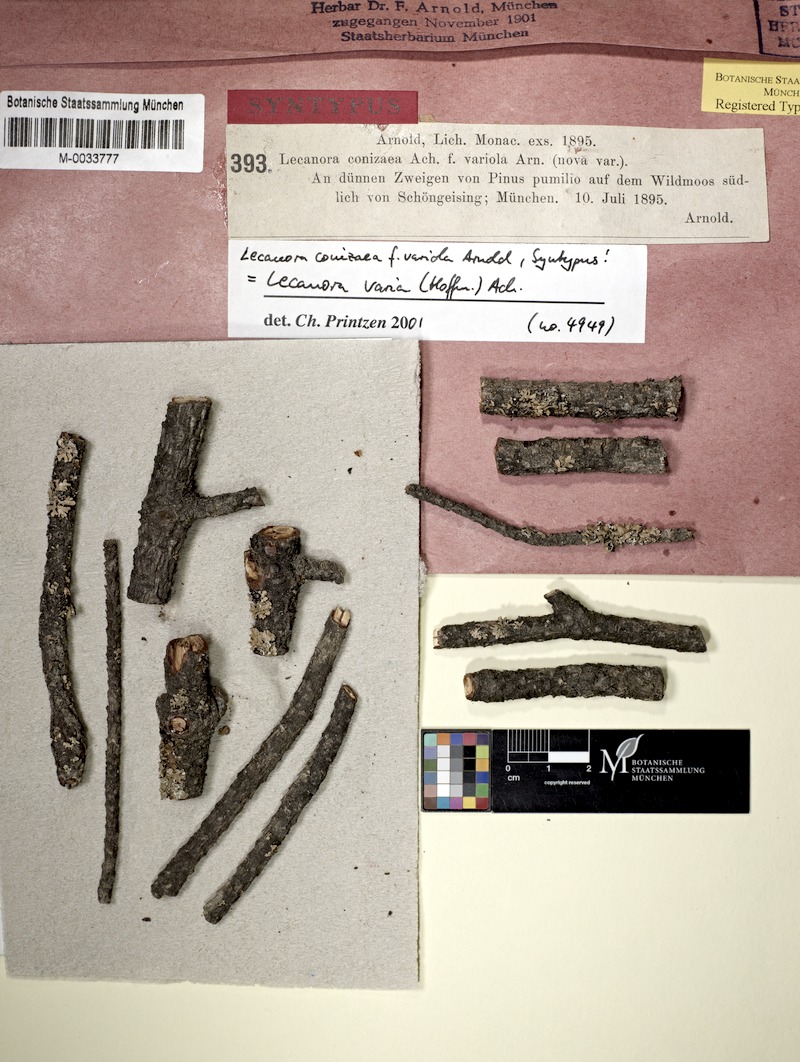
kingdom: Fungi
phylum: Ascomycota
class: Lecanoromycetes
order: Lecanorales
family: Lecanoraceae
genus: Straminella
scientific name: Straminella varia
